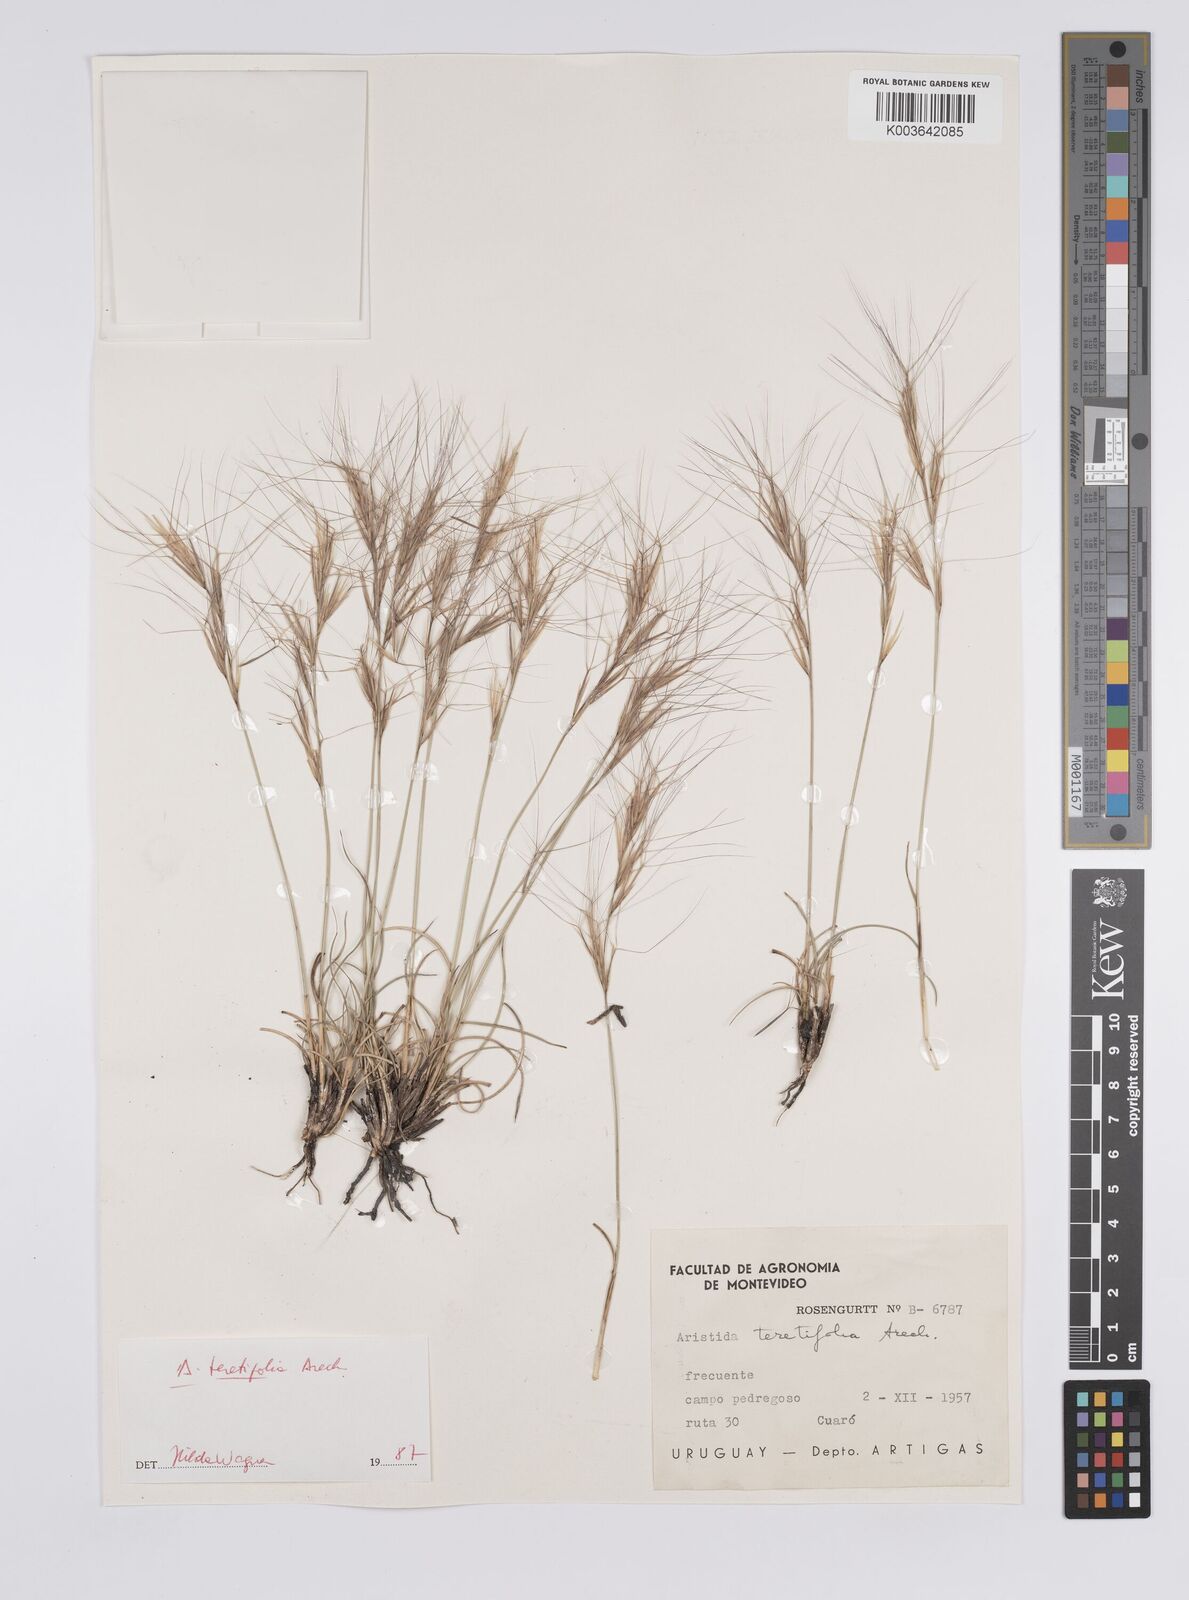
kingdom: Plantae
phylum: Tracheophyta
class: Liliopsida
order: Poales
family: Poaceae
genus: Aristida
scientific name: Aristida teretifolia
